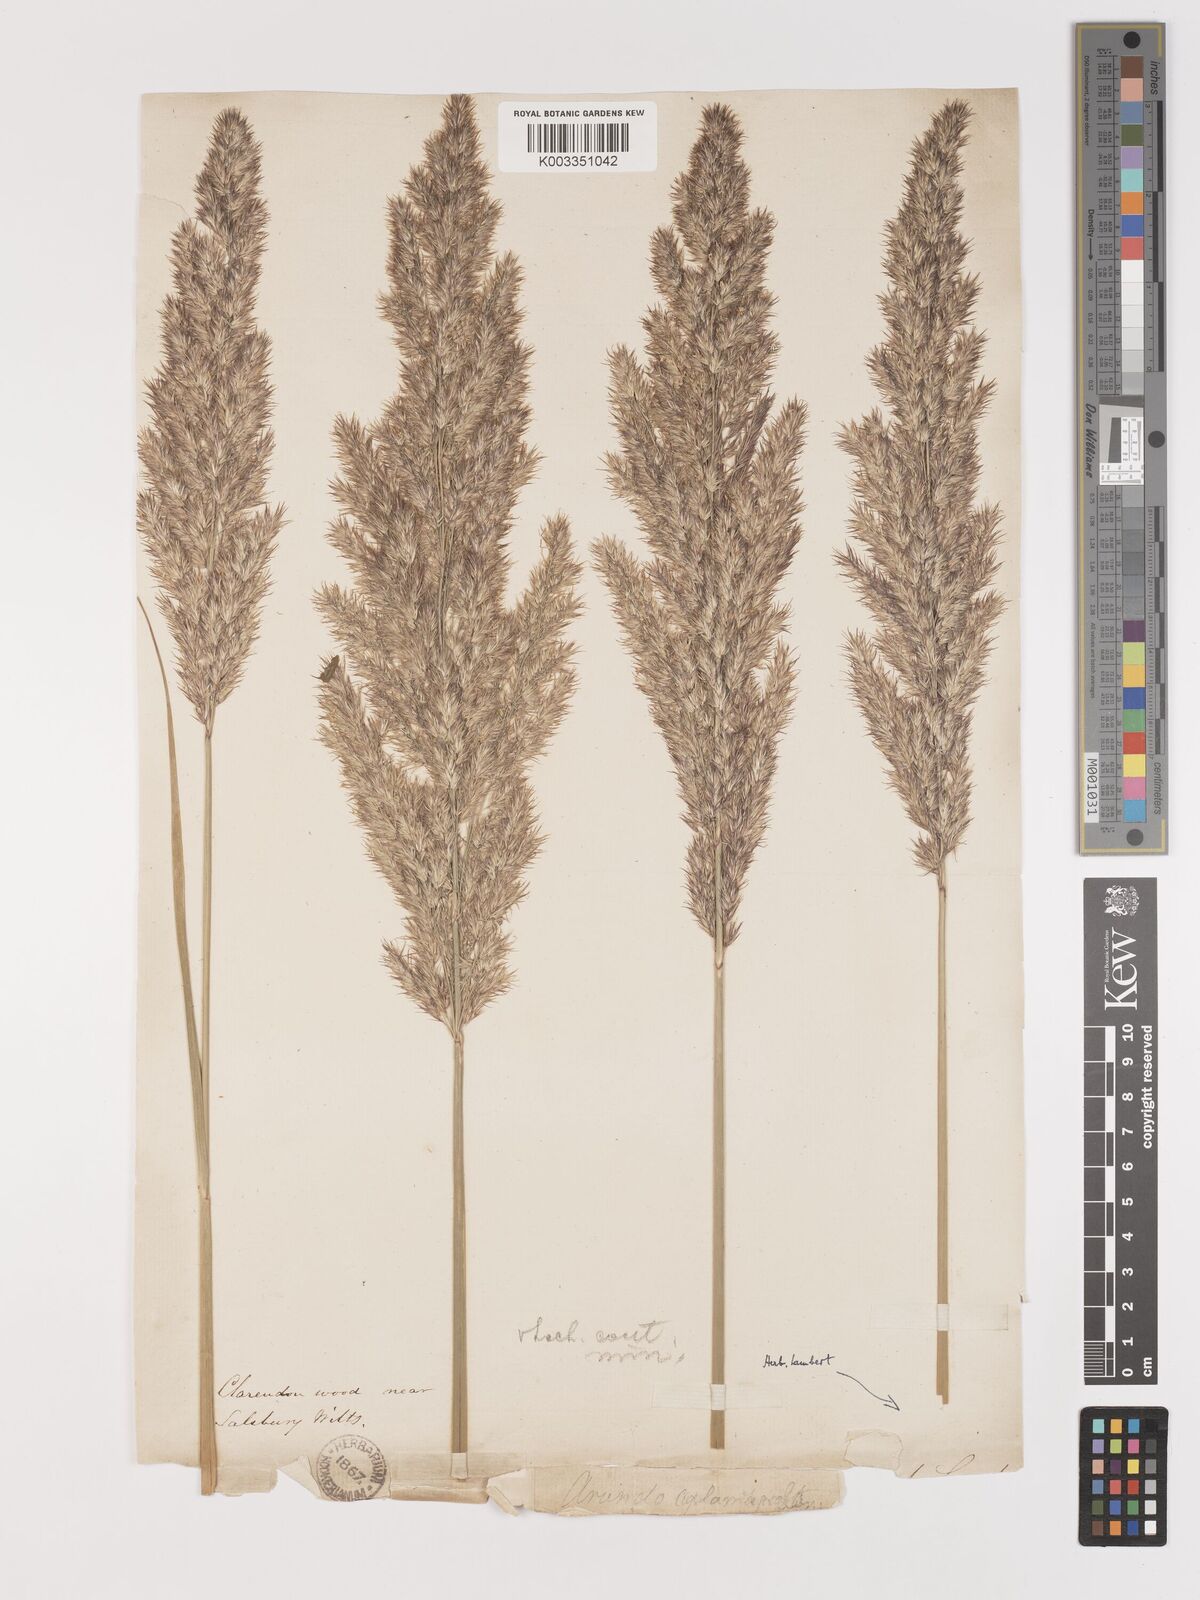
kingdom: Plantae
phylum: Tracheophyta
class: Liliopsida
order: Poales
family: Poaceae
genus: Calamagrostis
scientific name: Calamagrostis epigejos
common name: Wood small-reed
